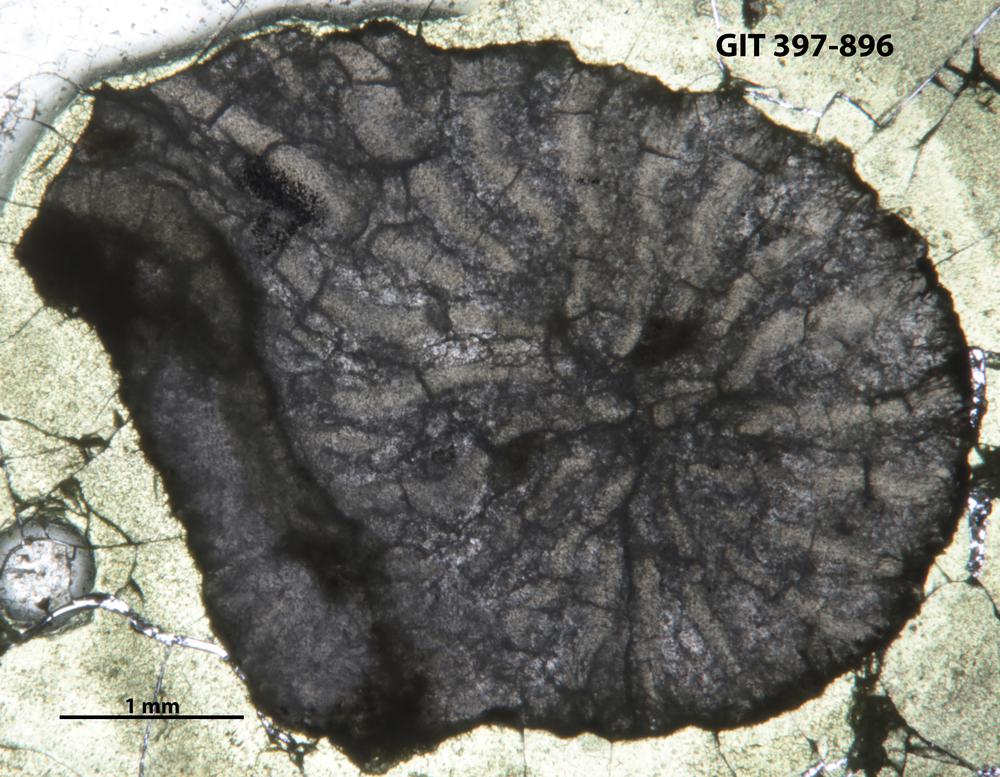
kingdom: Animalia
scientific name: Animalia
